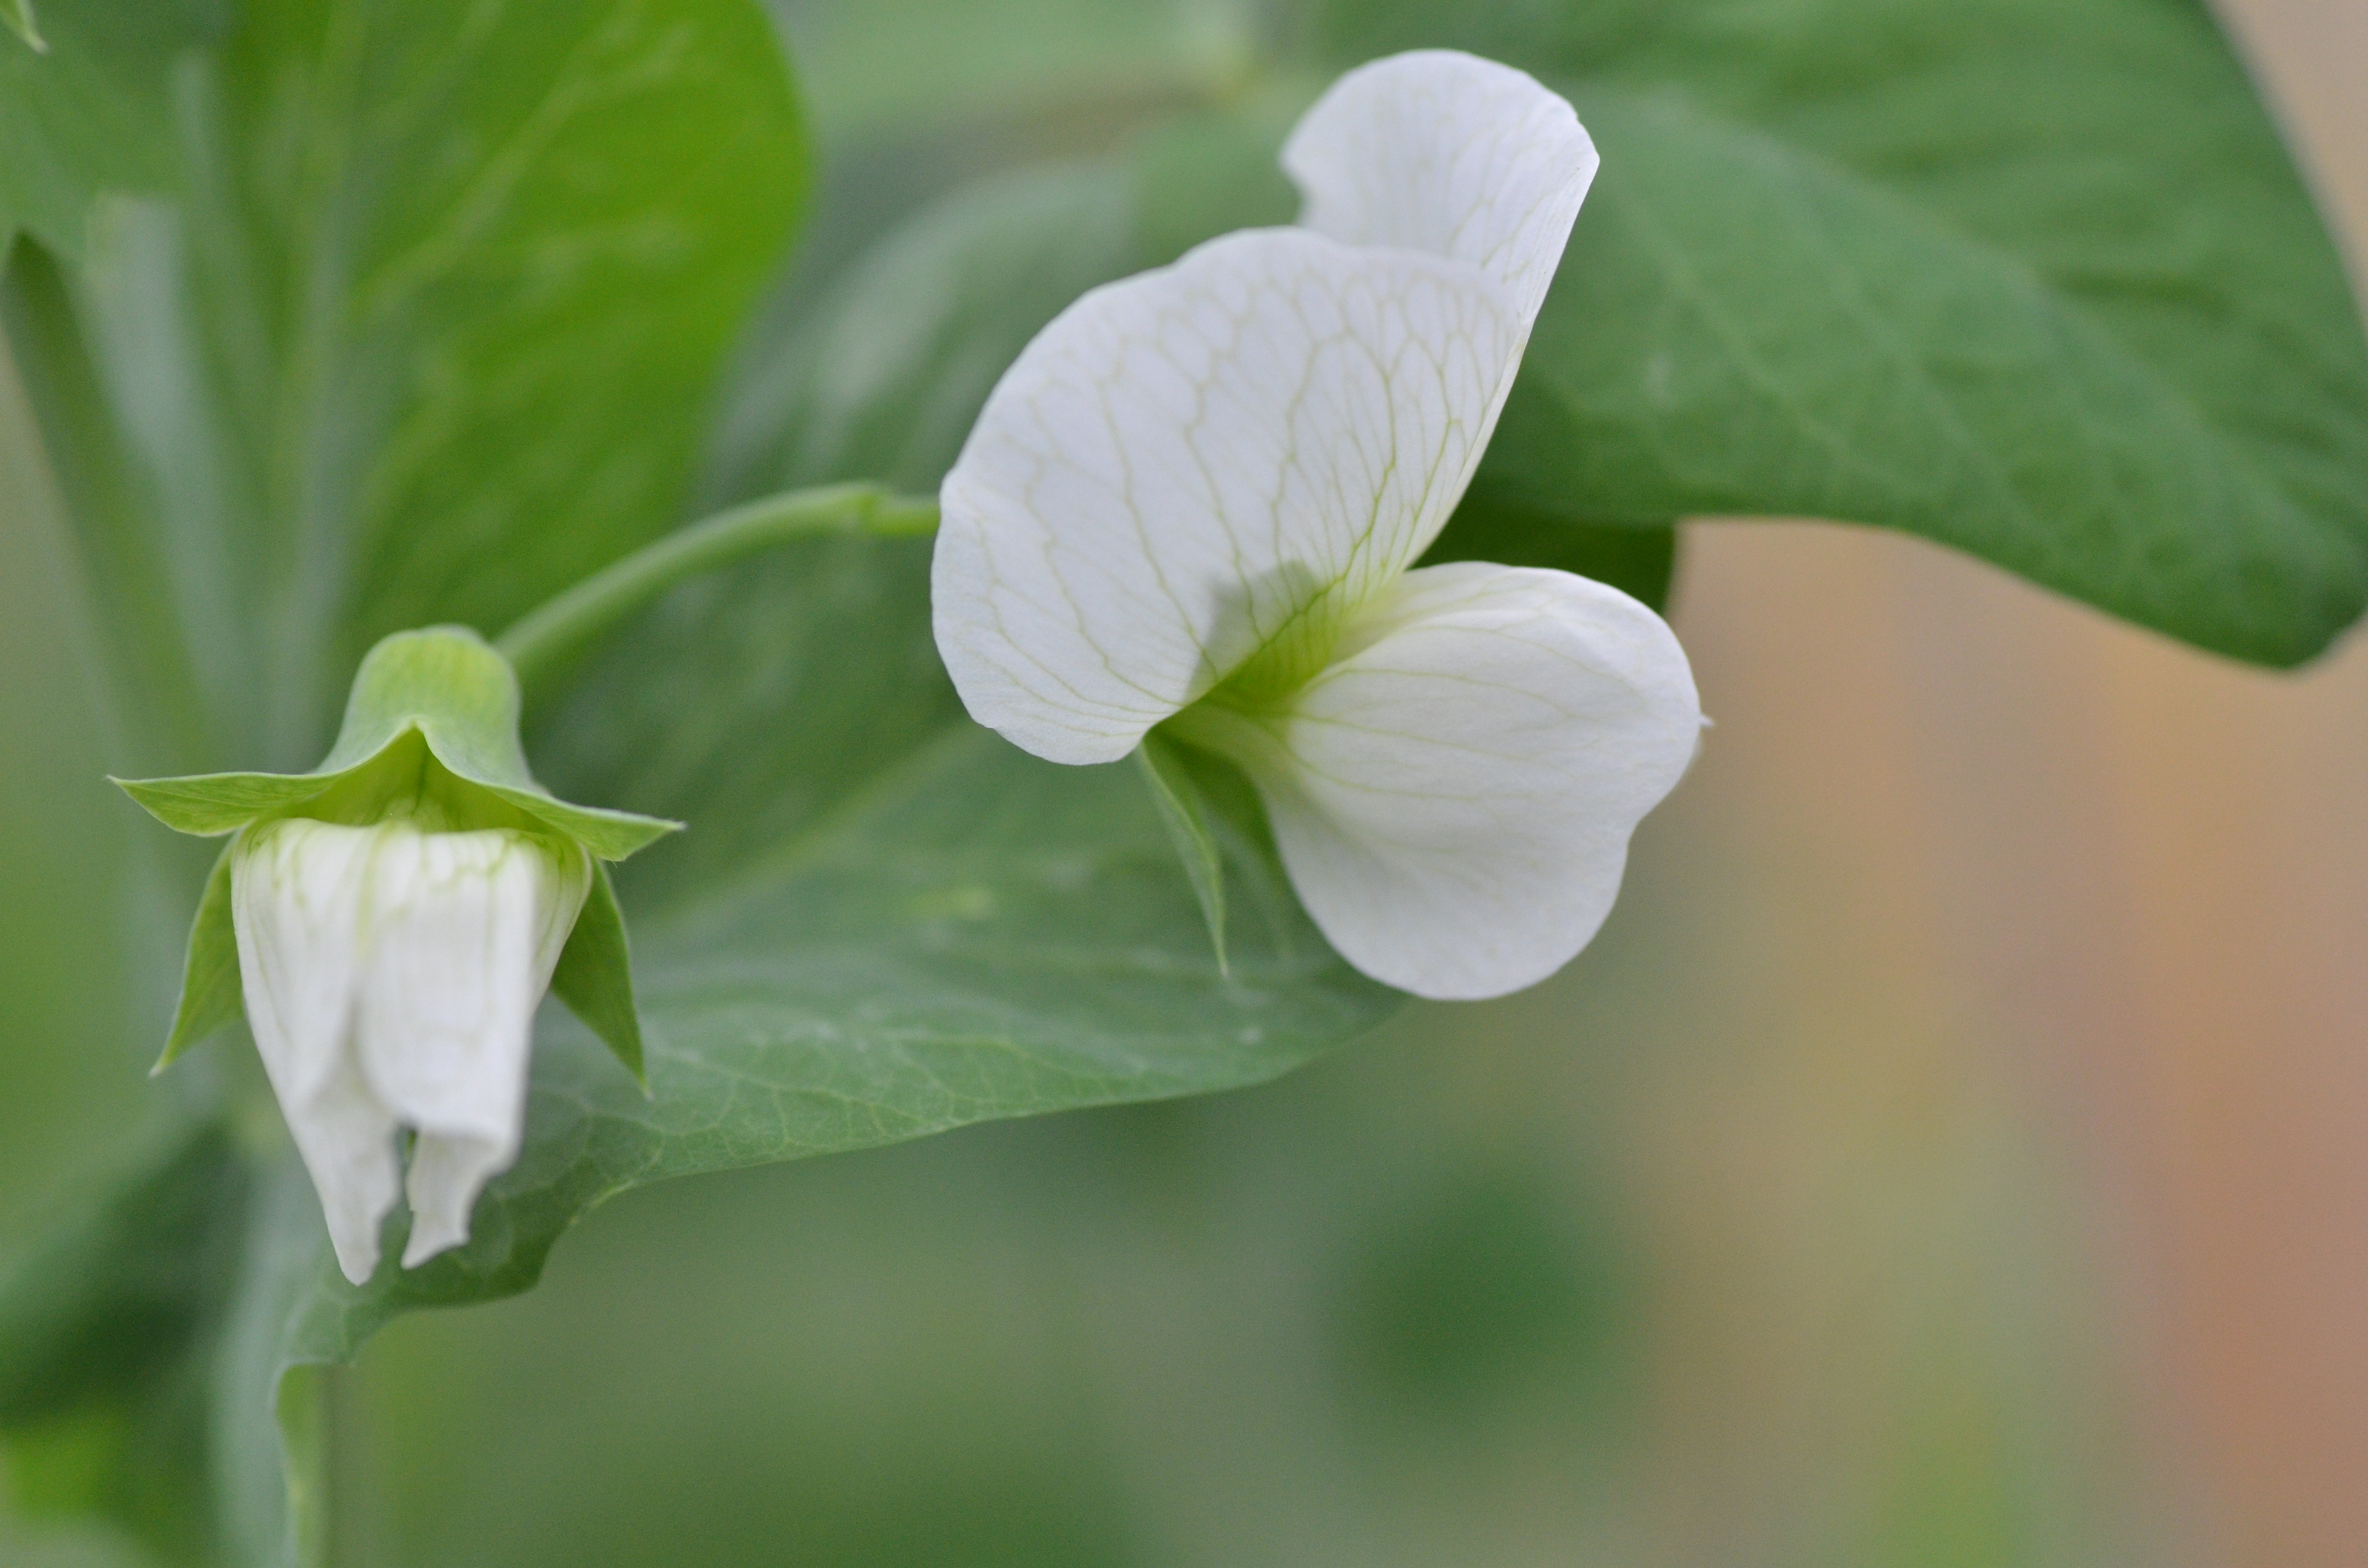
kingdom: Plantae
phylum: Tracheophyta
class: Magnoliopsida
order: Fabales
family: Fabaceae
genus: Lathyrus
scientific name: Lathyrus oleraceus
